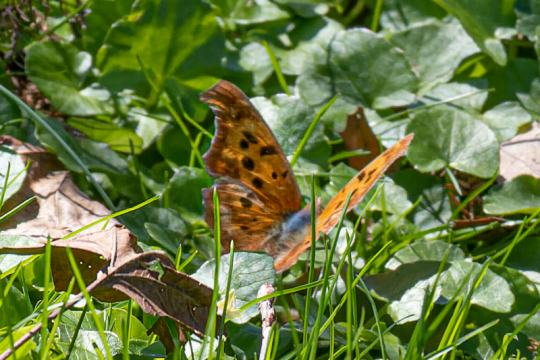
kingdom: Animalia
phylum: Arthropoda
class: Insecta
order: Lepidoptera
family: Nymphalidae
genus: Polygonia
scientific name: Polygonia interrogationis
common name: Question Mark
